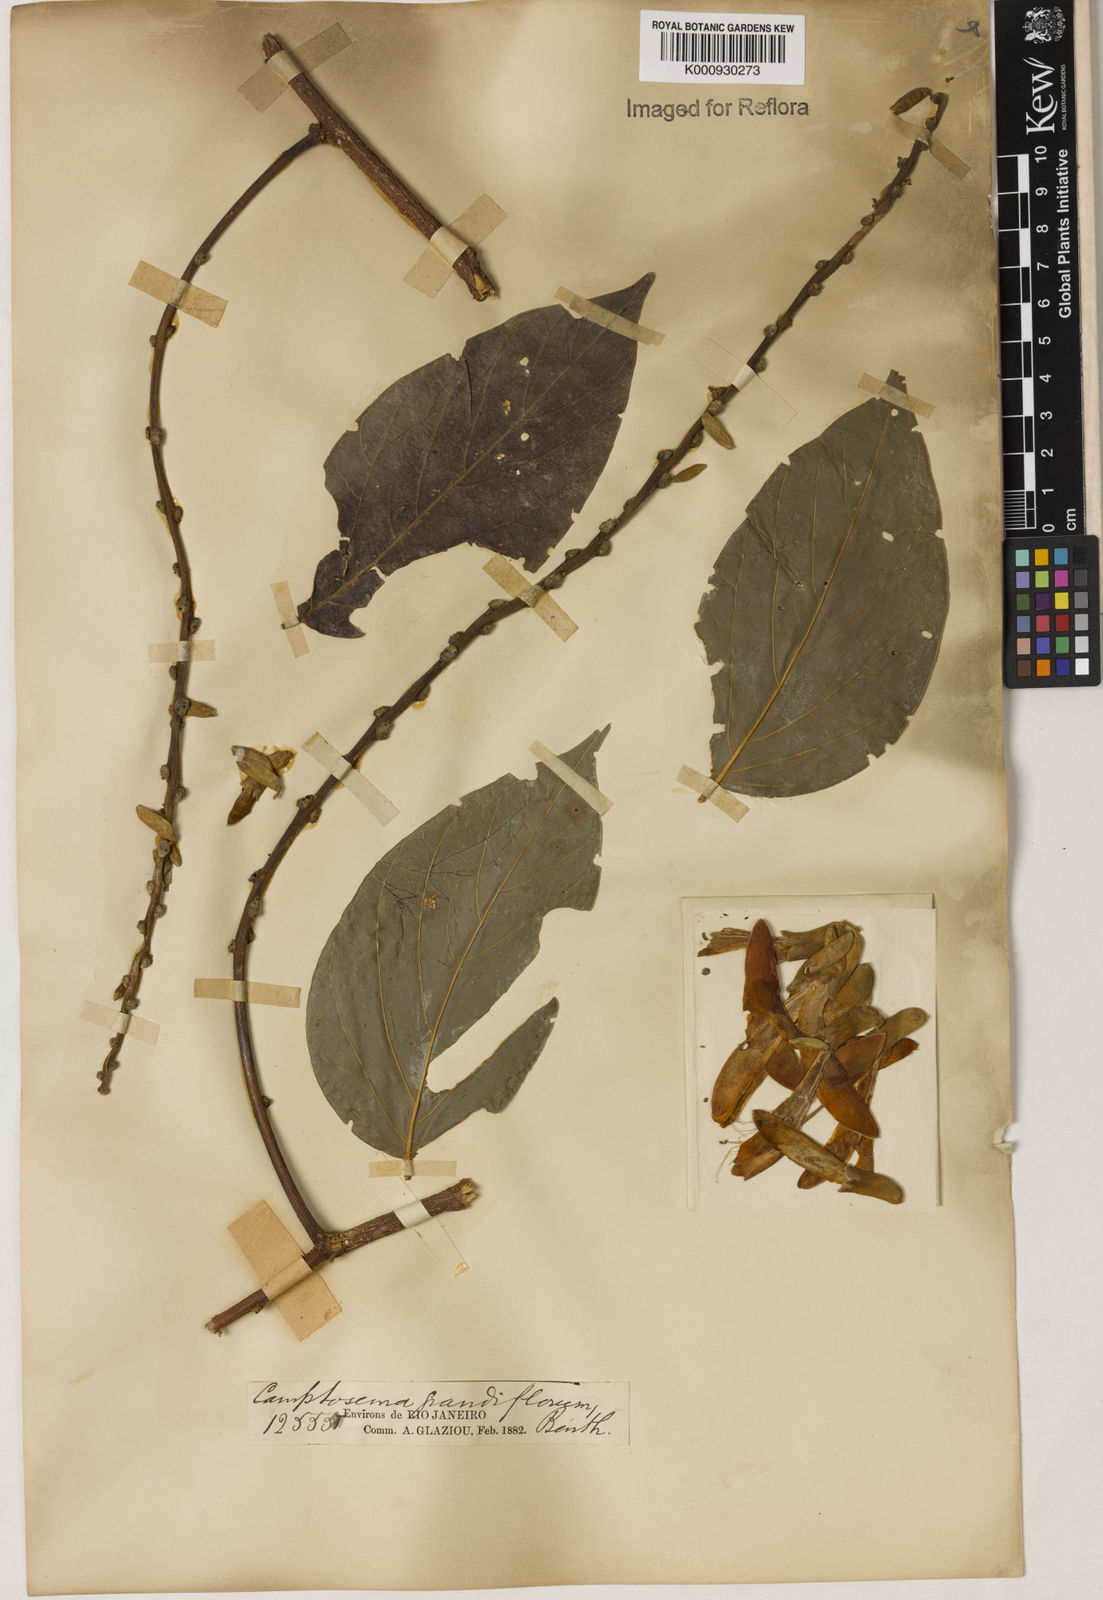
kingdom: Plantae
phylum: Tracheophyta
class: Magnoliopsida
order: Fabales
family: Fabaceae
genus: Camptosema
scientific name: Camptosema spectabile
